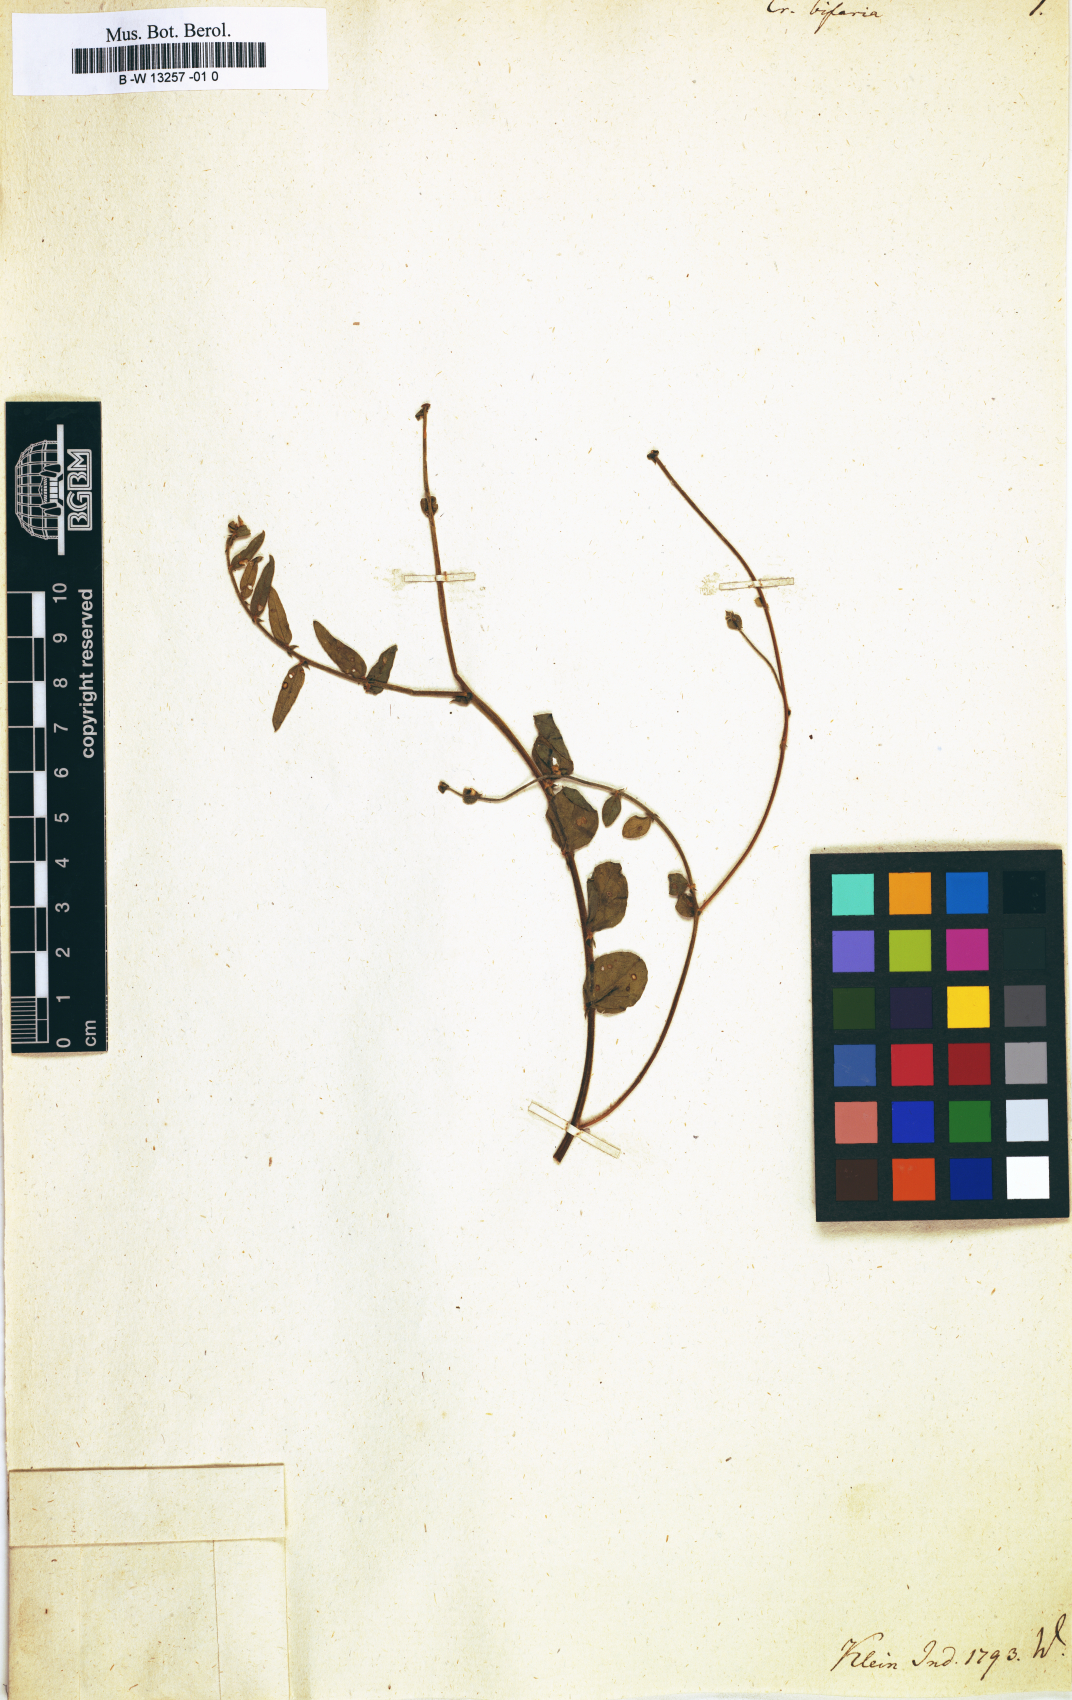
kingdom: Plantae
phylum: Tracheophyta
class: Magnoliopsida
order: Fabales
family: Fabaceae
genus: Crotalaria
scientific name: Crotalaria bifaria
